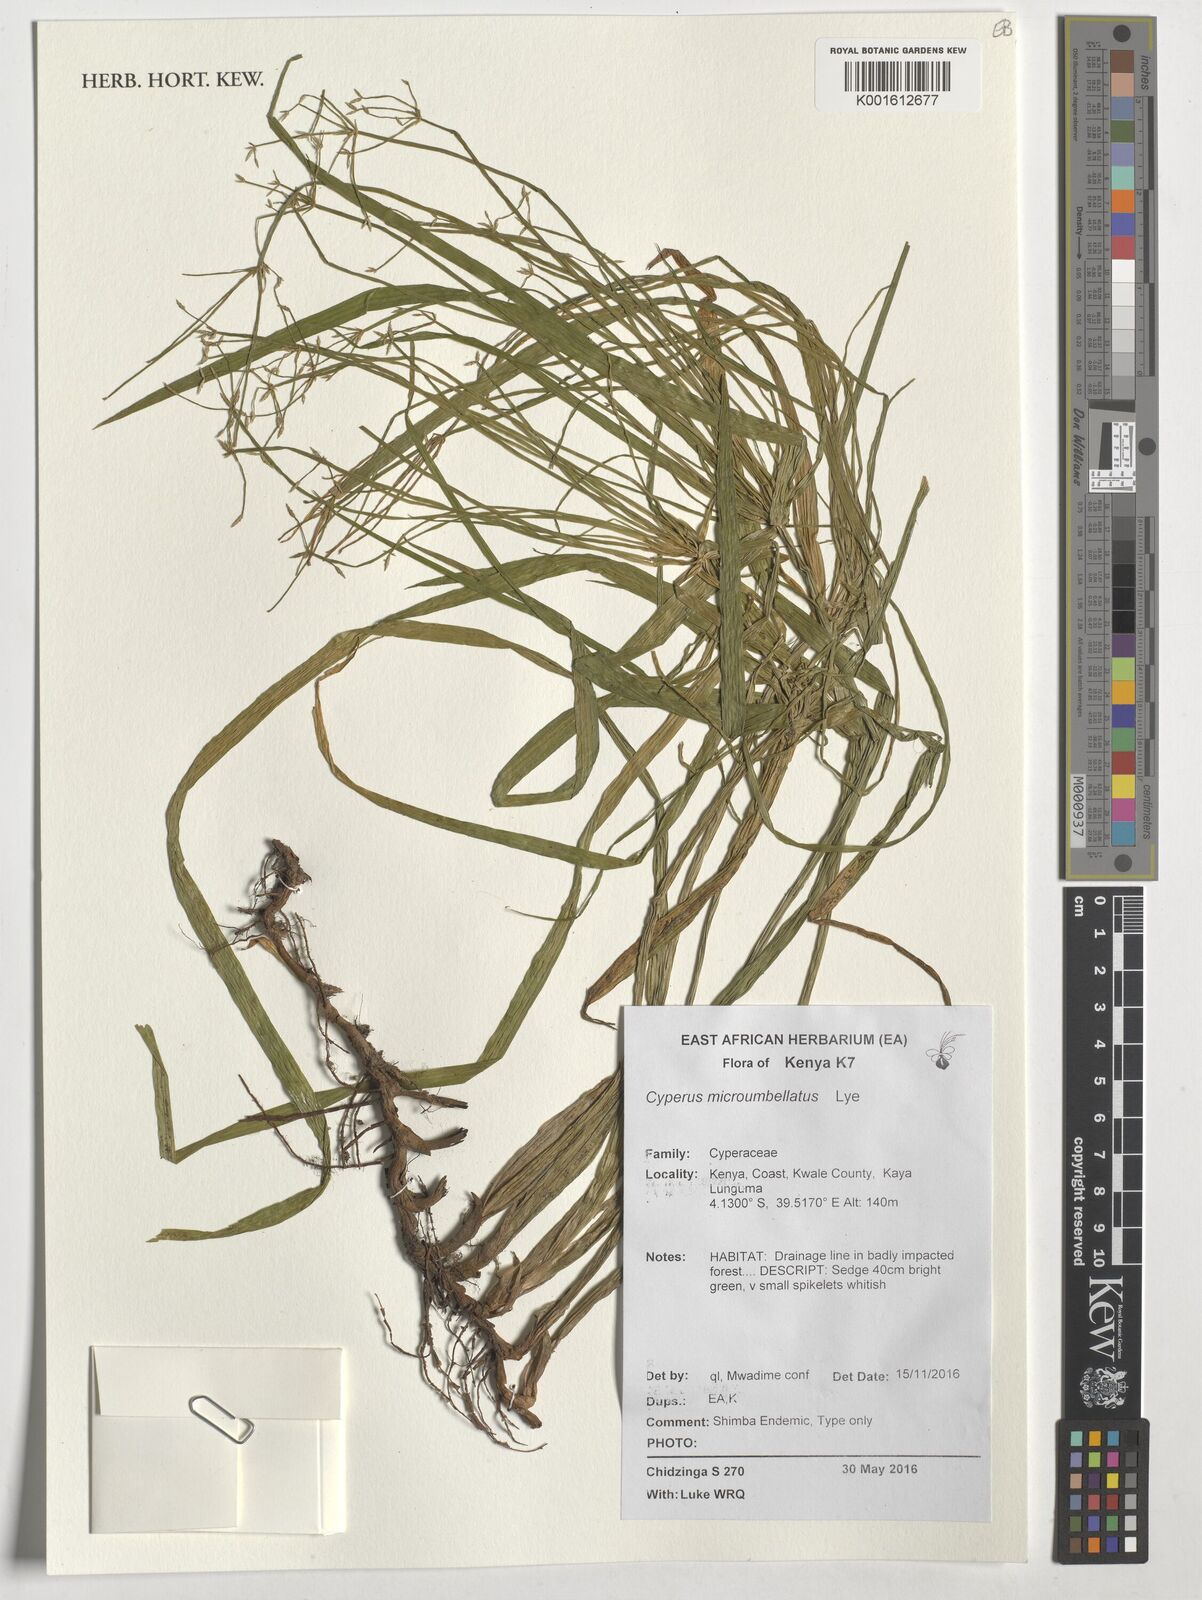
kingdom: Plantae
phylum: Tracheophyta
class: Liliopsida
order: Poales
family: Cyperaceae
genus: Cyperus
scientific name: Cyperus microumbellatus
